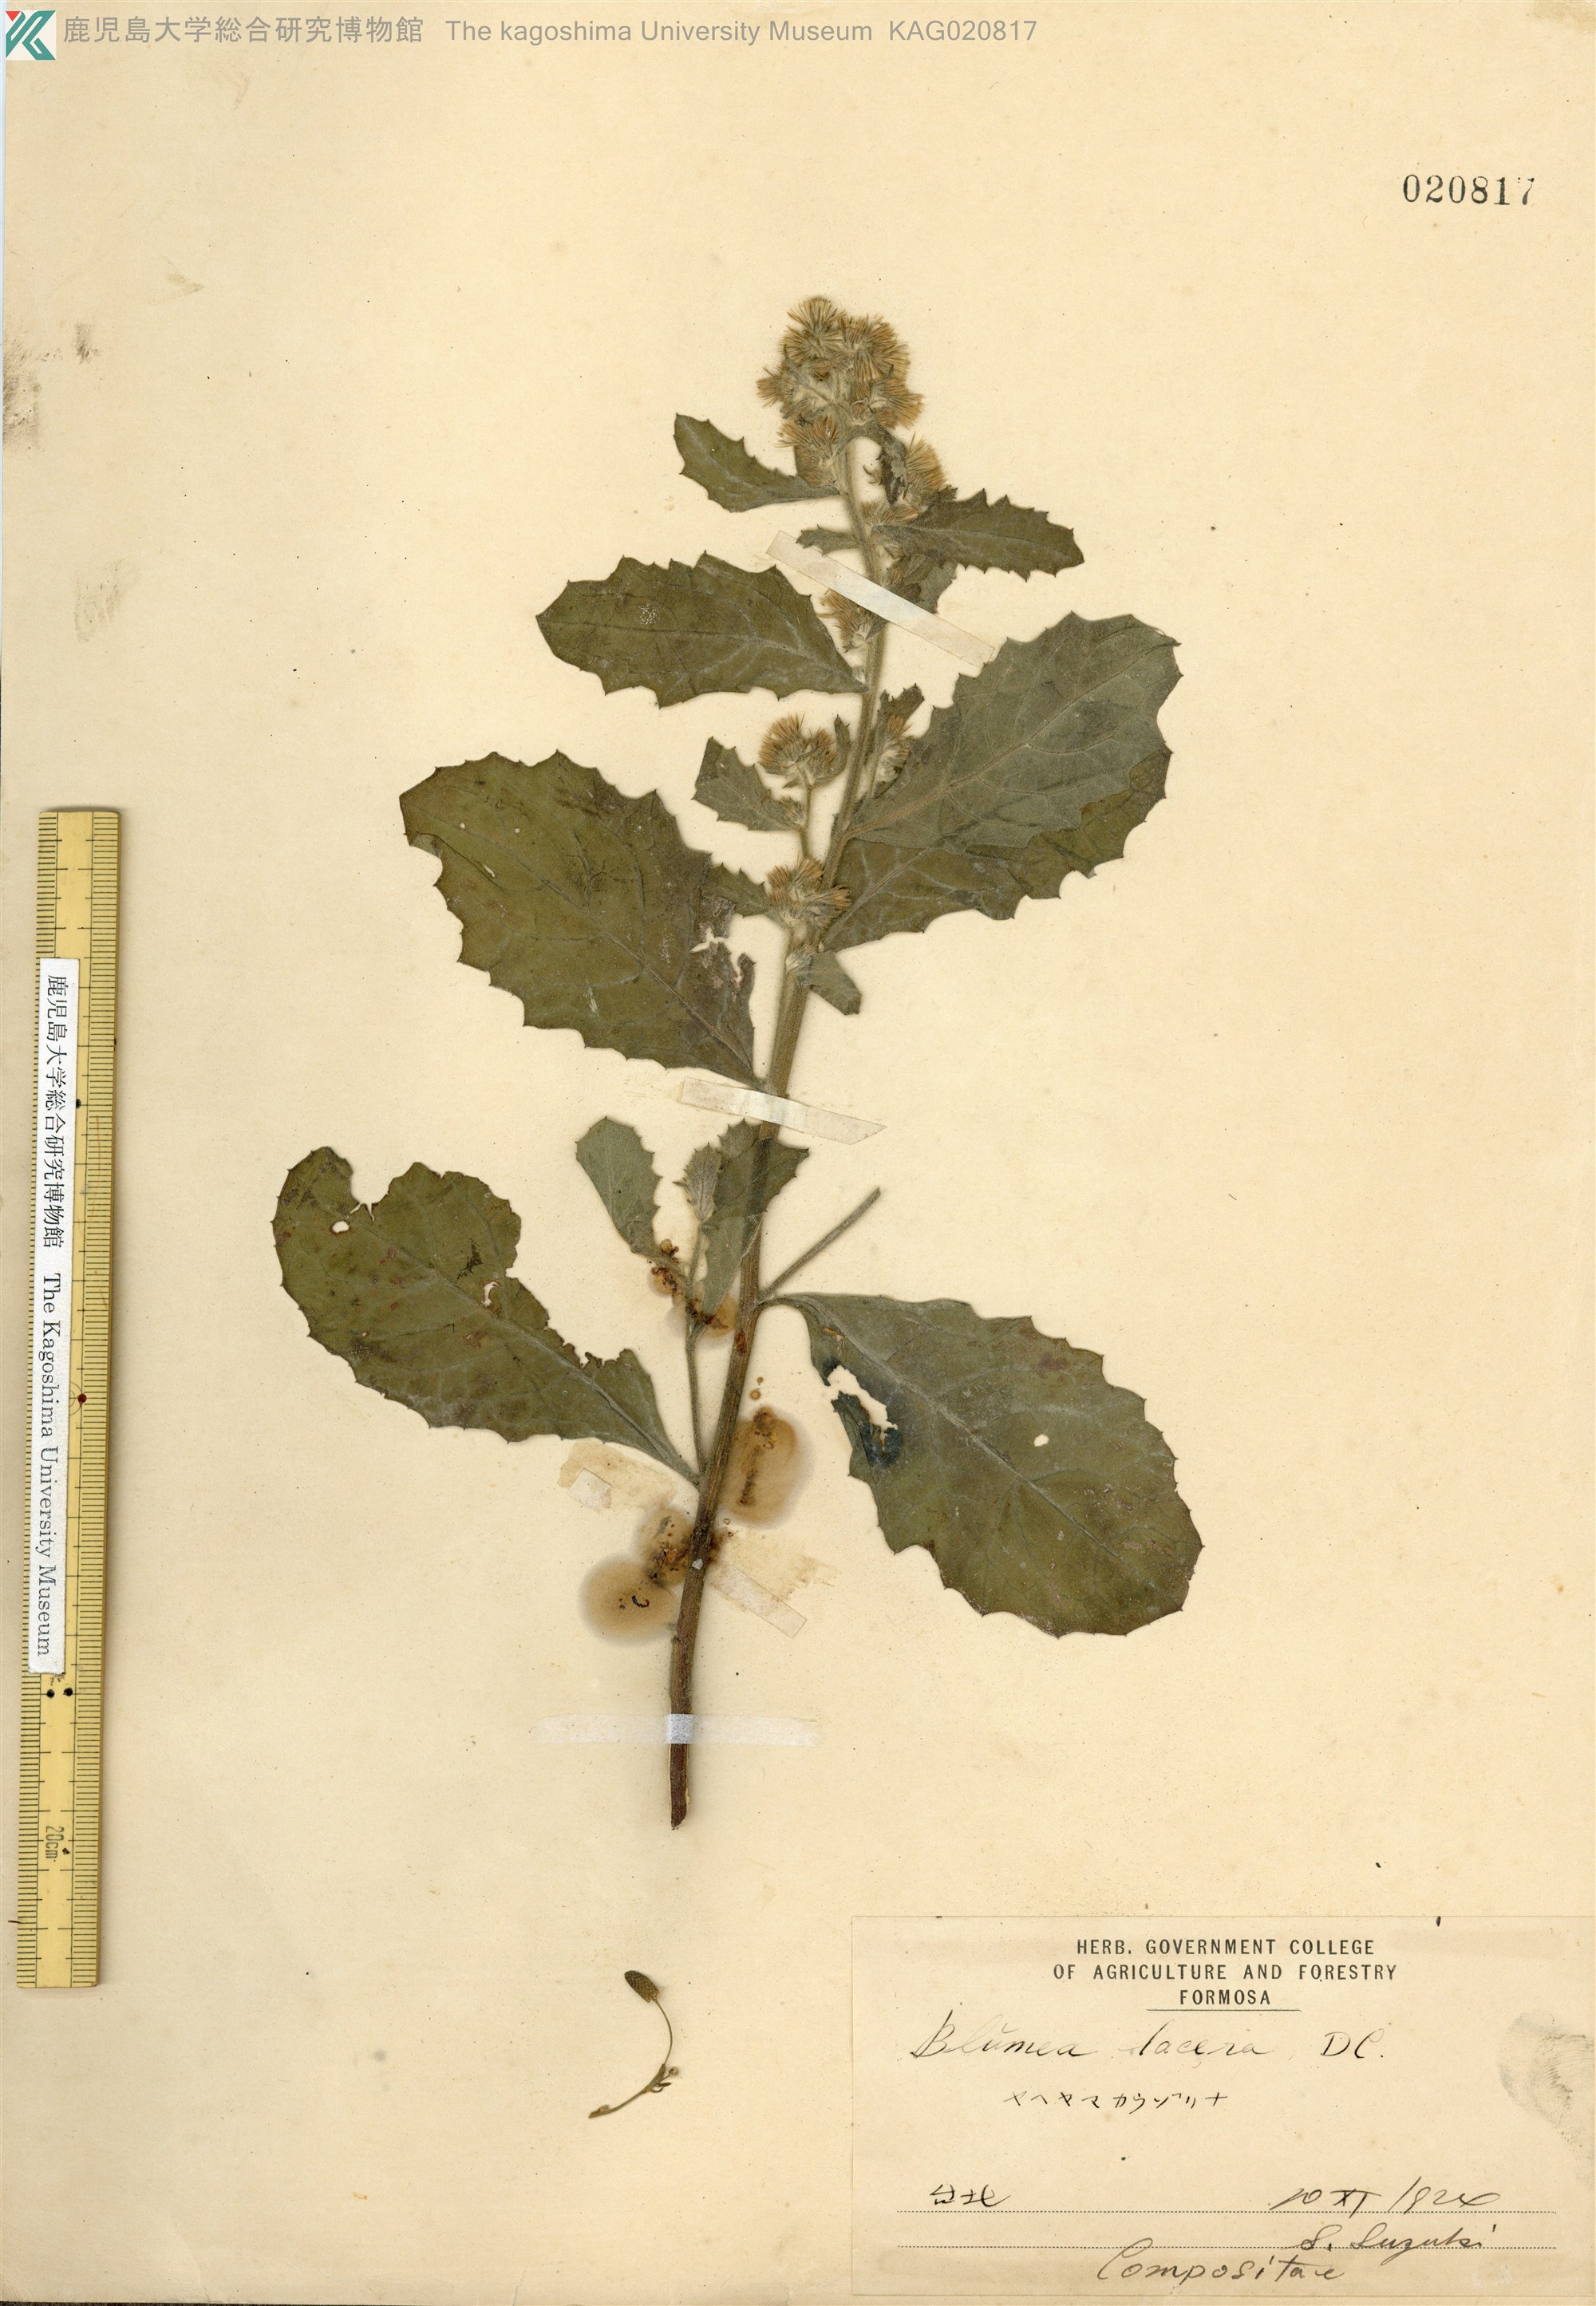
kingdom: Plantae
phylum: Tracheophyta
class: Magnoliopsida
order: Asterales
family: Asteraceae
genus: Blumea
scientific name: Blumea lacera
